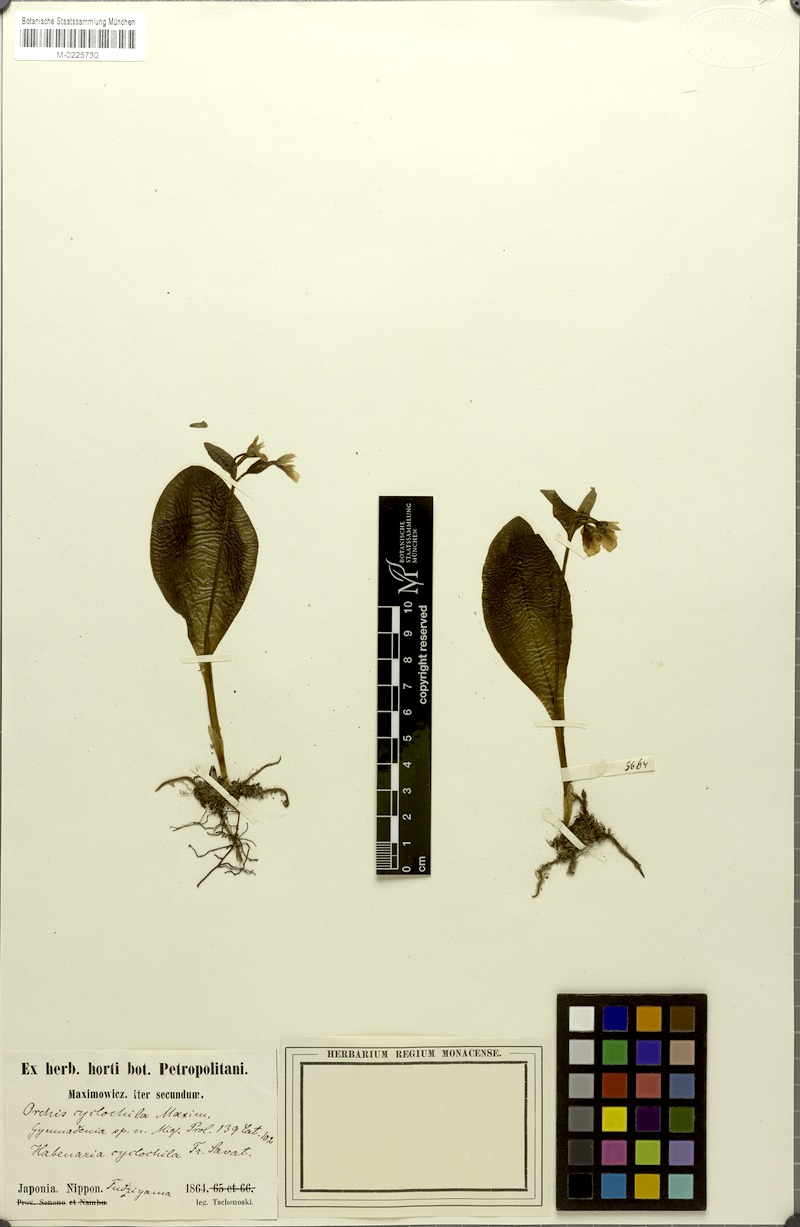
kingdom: Plantae
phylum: Tracheophyta
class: Liliopsida
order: Asparagales
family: Orchidaceae
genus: Galearis
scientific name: Galearis cyclochila
